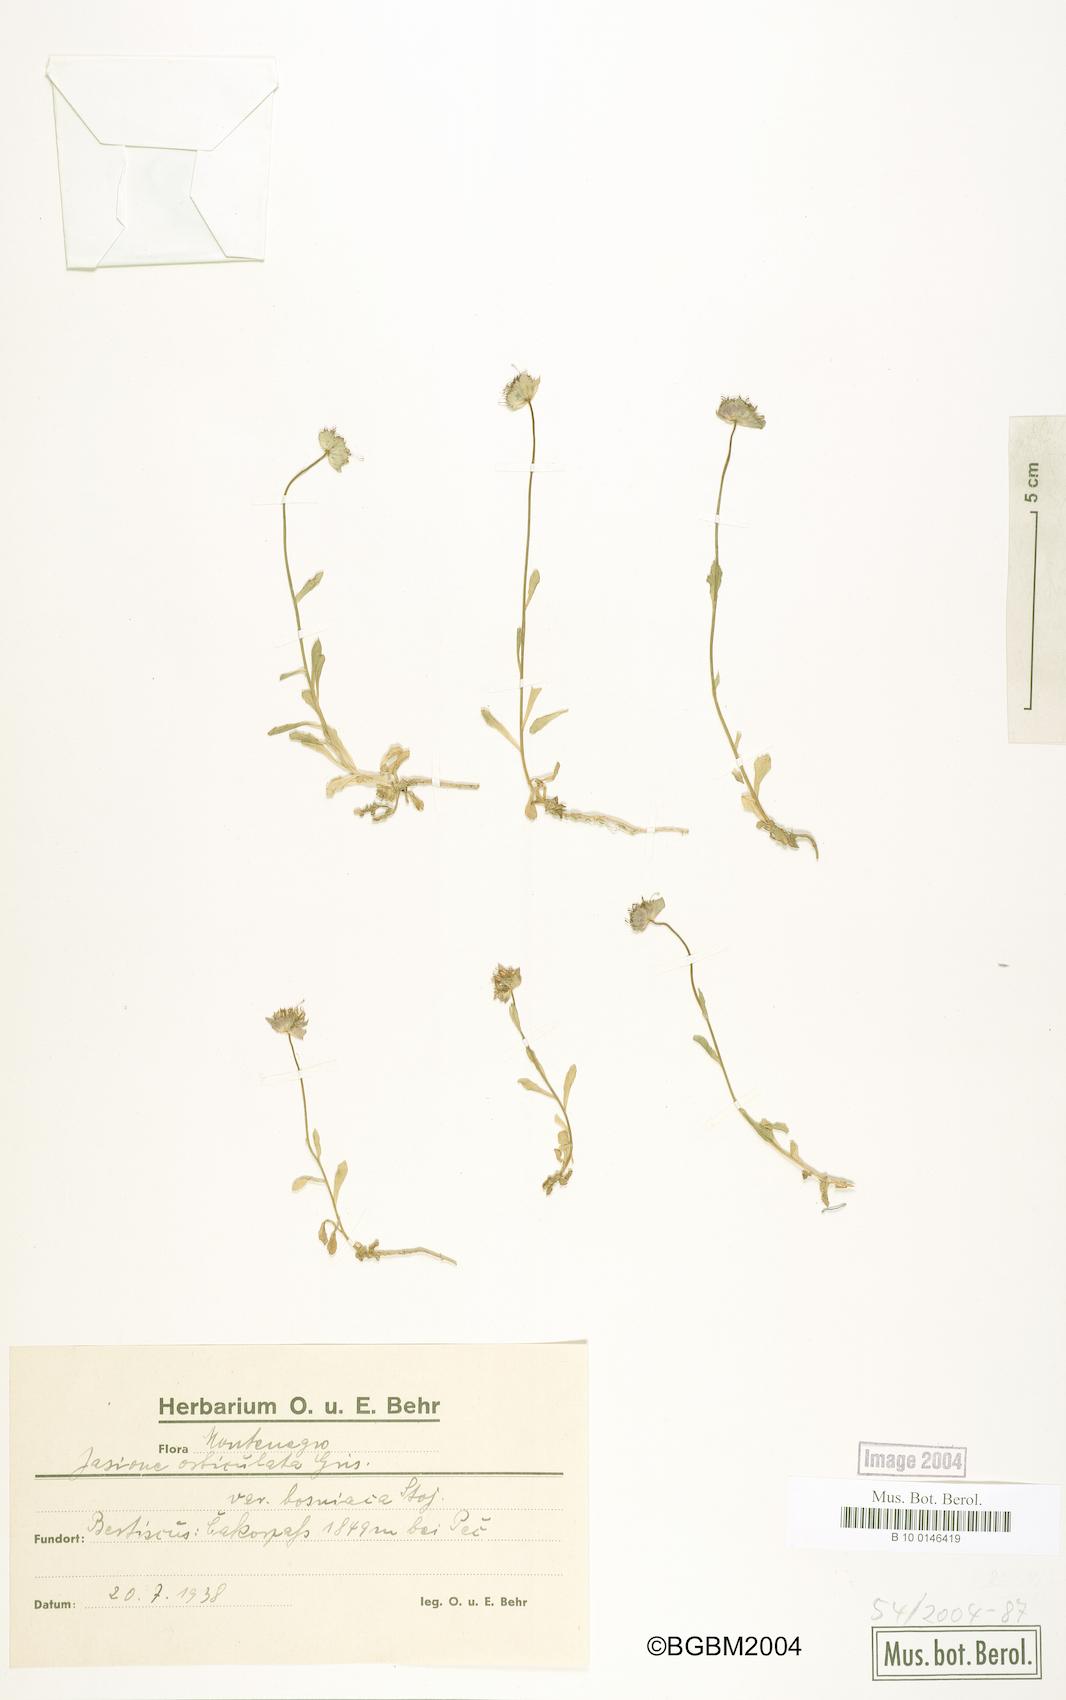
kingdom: Plantae
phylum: Tracheophyta
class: Magnoliopsida
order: Asterales
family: Campanulaceae
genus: Jasione
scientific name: Jasione orbiculata
